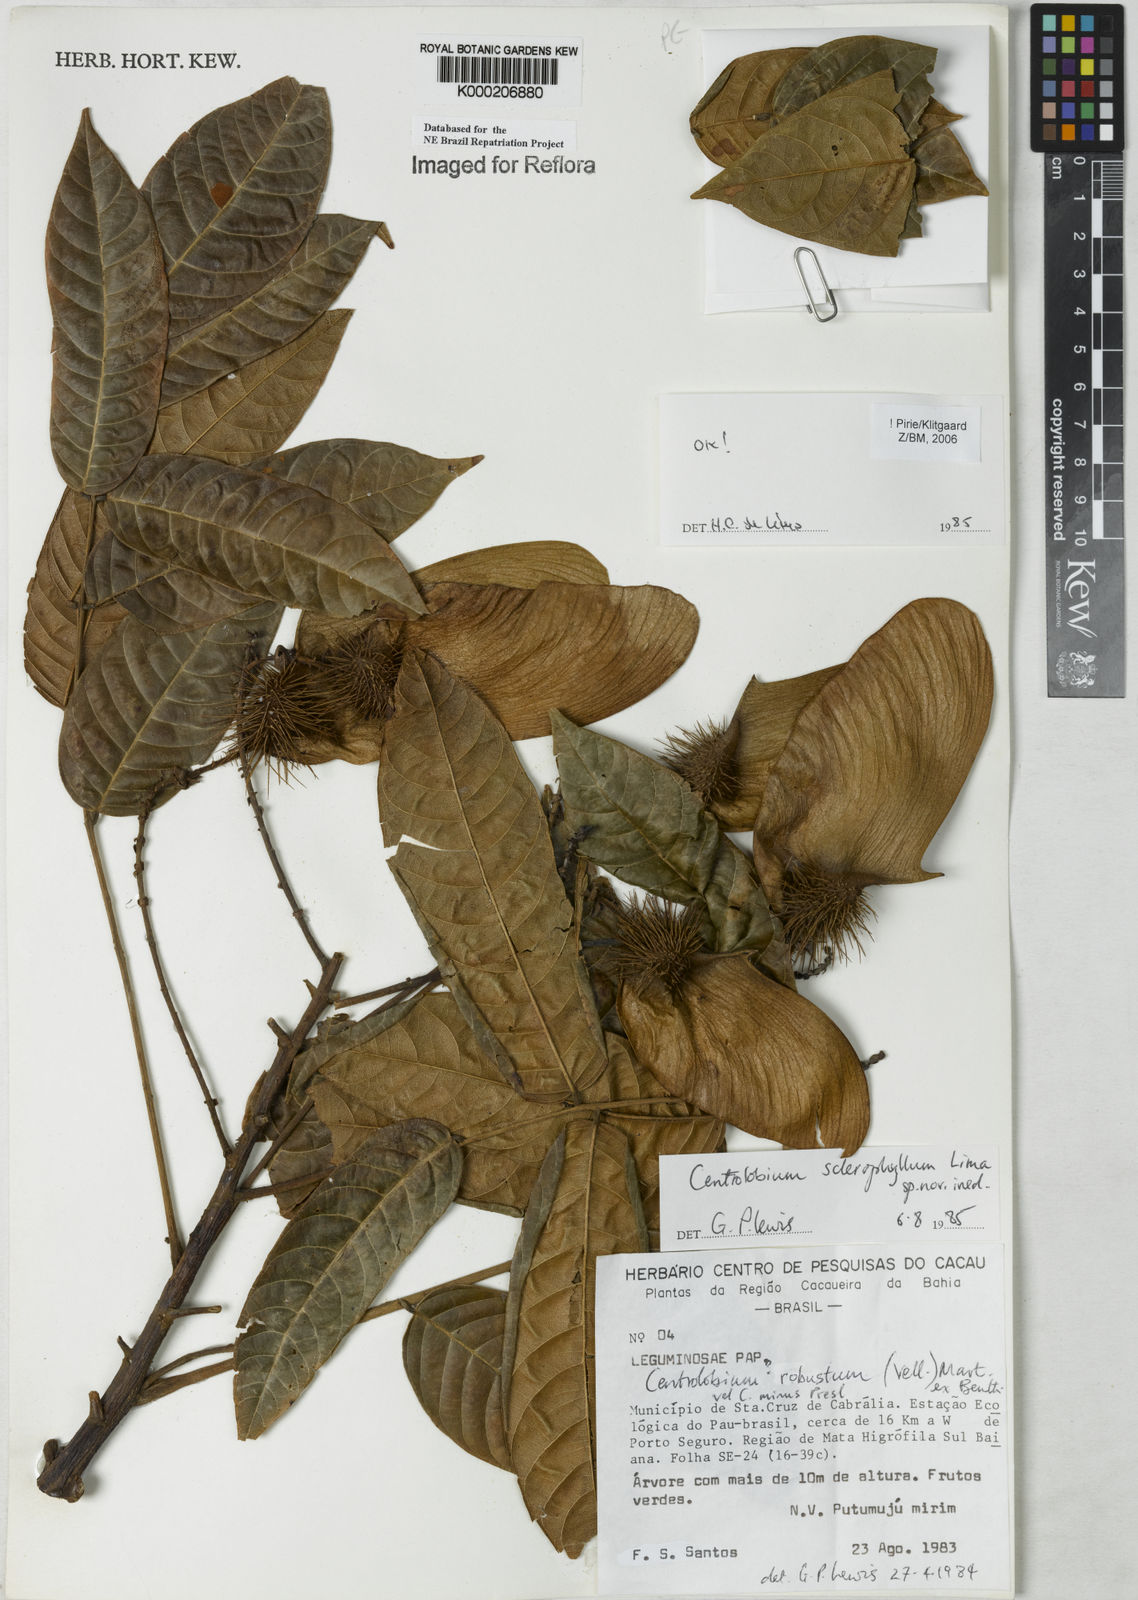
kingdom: Plantae
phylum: Tracheophyta
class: Magnoliopsida
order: Fabales
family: Fabaceae
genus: Centrolobium
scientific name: Centrolobium sclerophyllum
